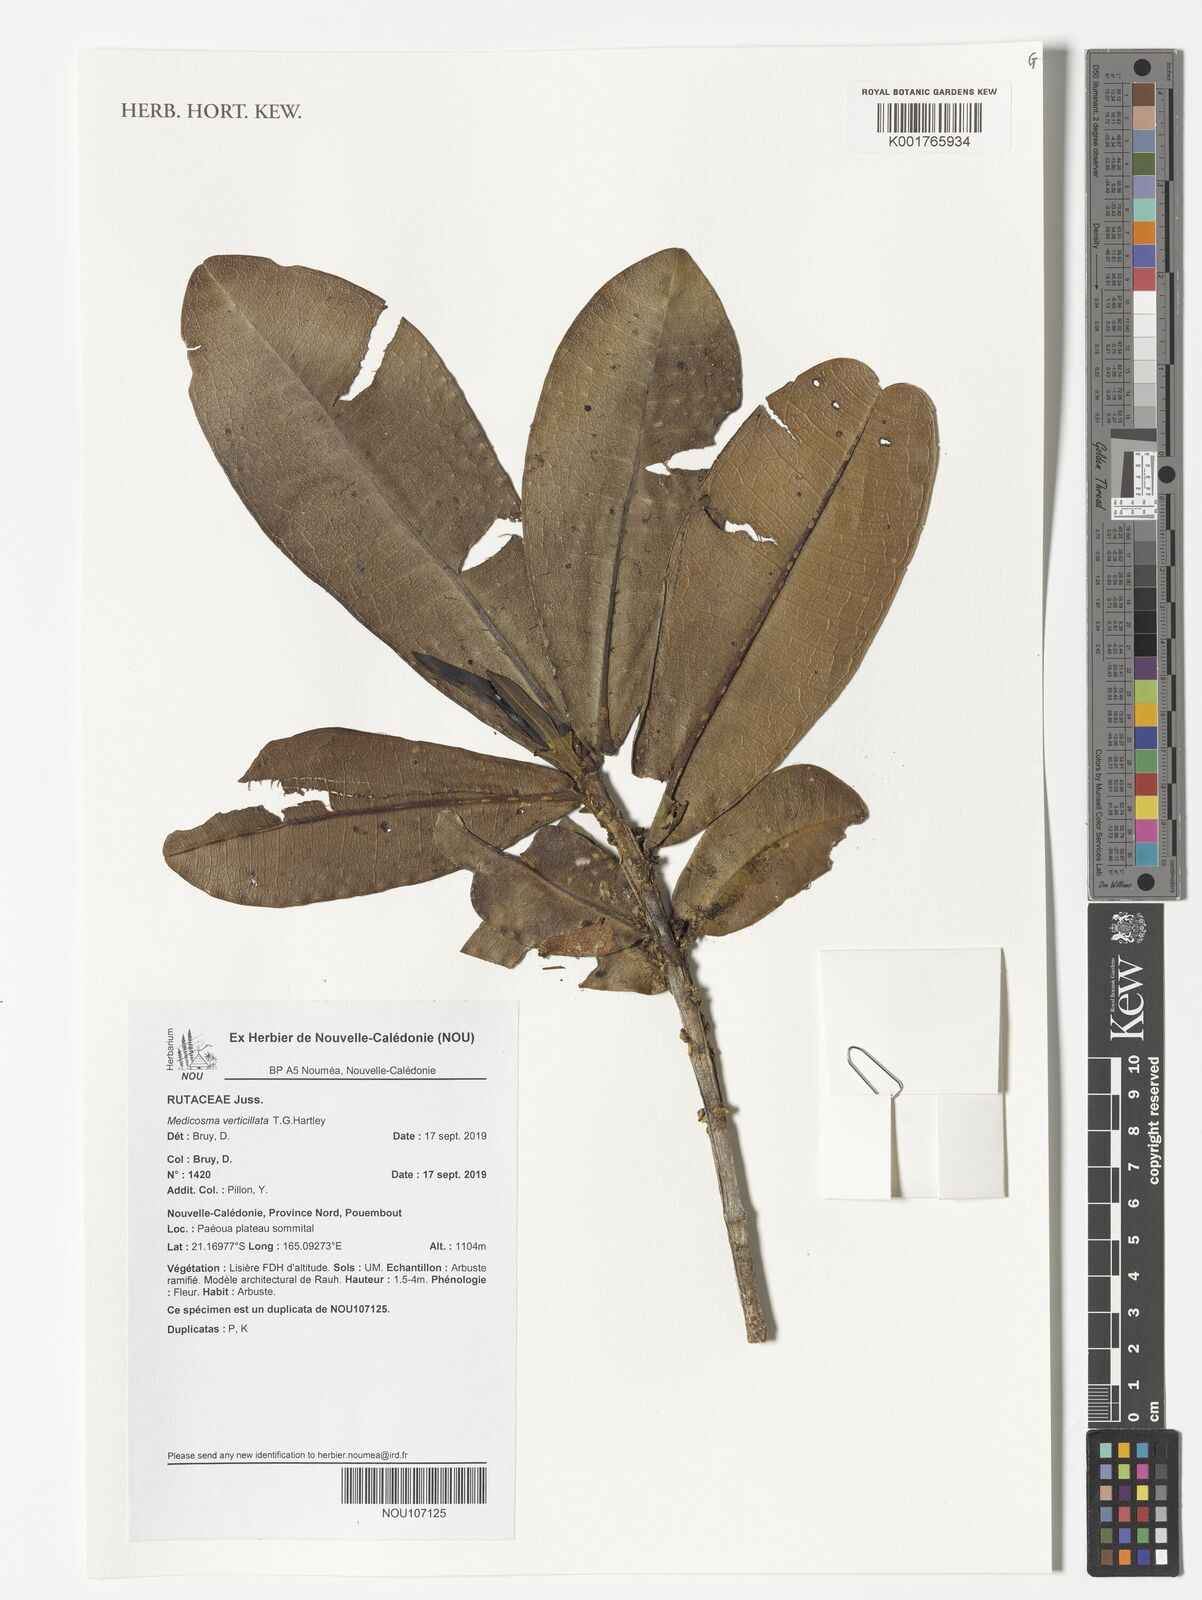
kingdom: Plantae
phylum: Tracheophyta
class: Magnoliopsida
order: Sapindales
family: Rutaceae
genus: Medicosma
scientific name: Medicosma verticillata
